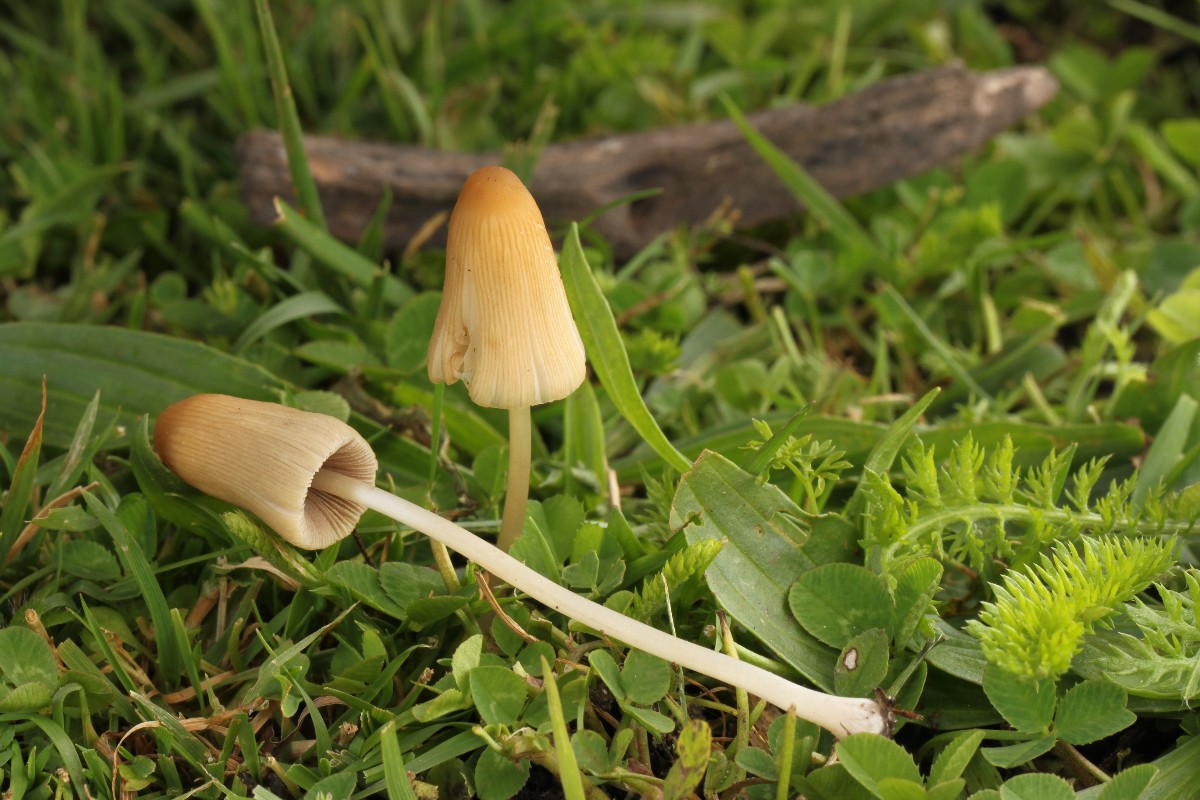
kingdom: Fungi
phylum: Basidiomycota
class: Agaricomycetes
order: Agaricales
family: Psathyrellaceae
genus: Parasola
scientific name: Parasola lactea
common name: glat hjulhat
